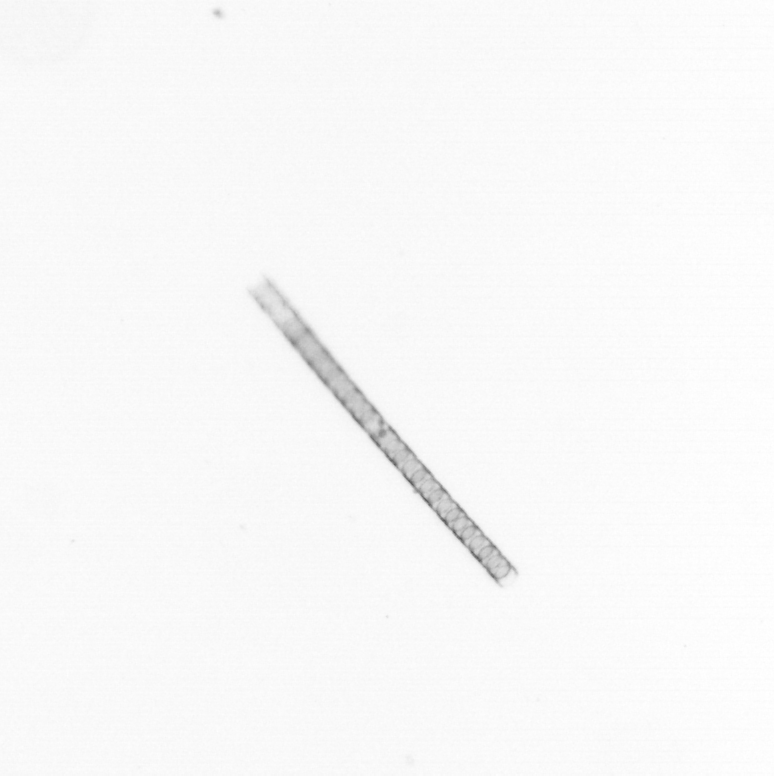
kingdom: Chromista
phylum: Ochrophyta
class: Bacillariophyceae
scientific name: Bacillariophyceae
